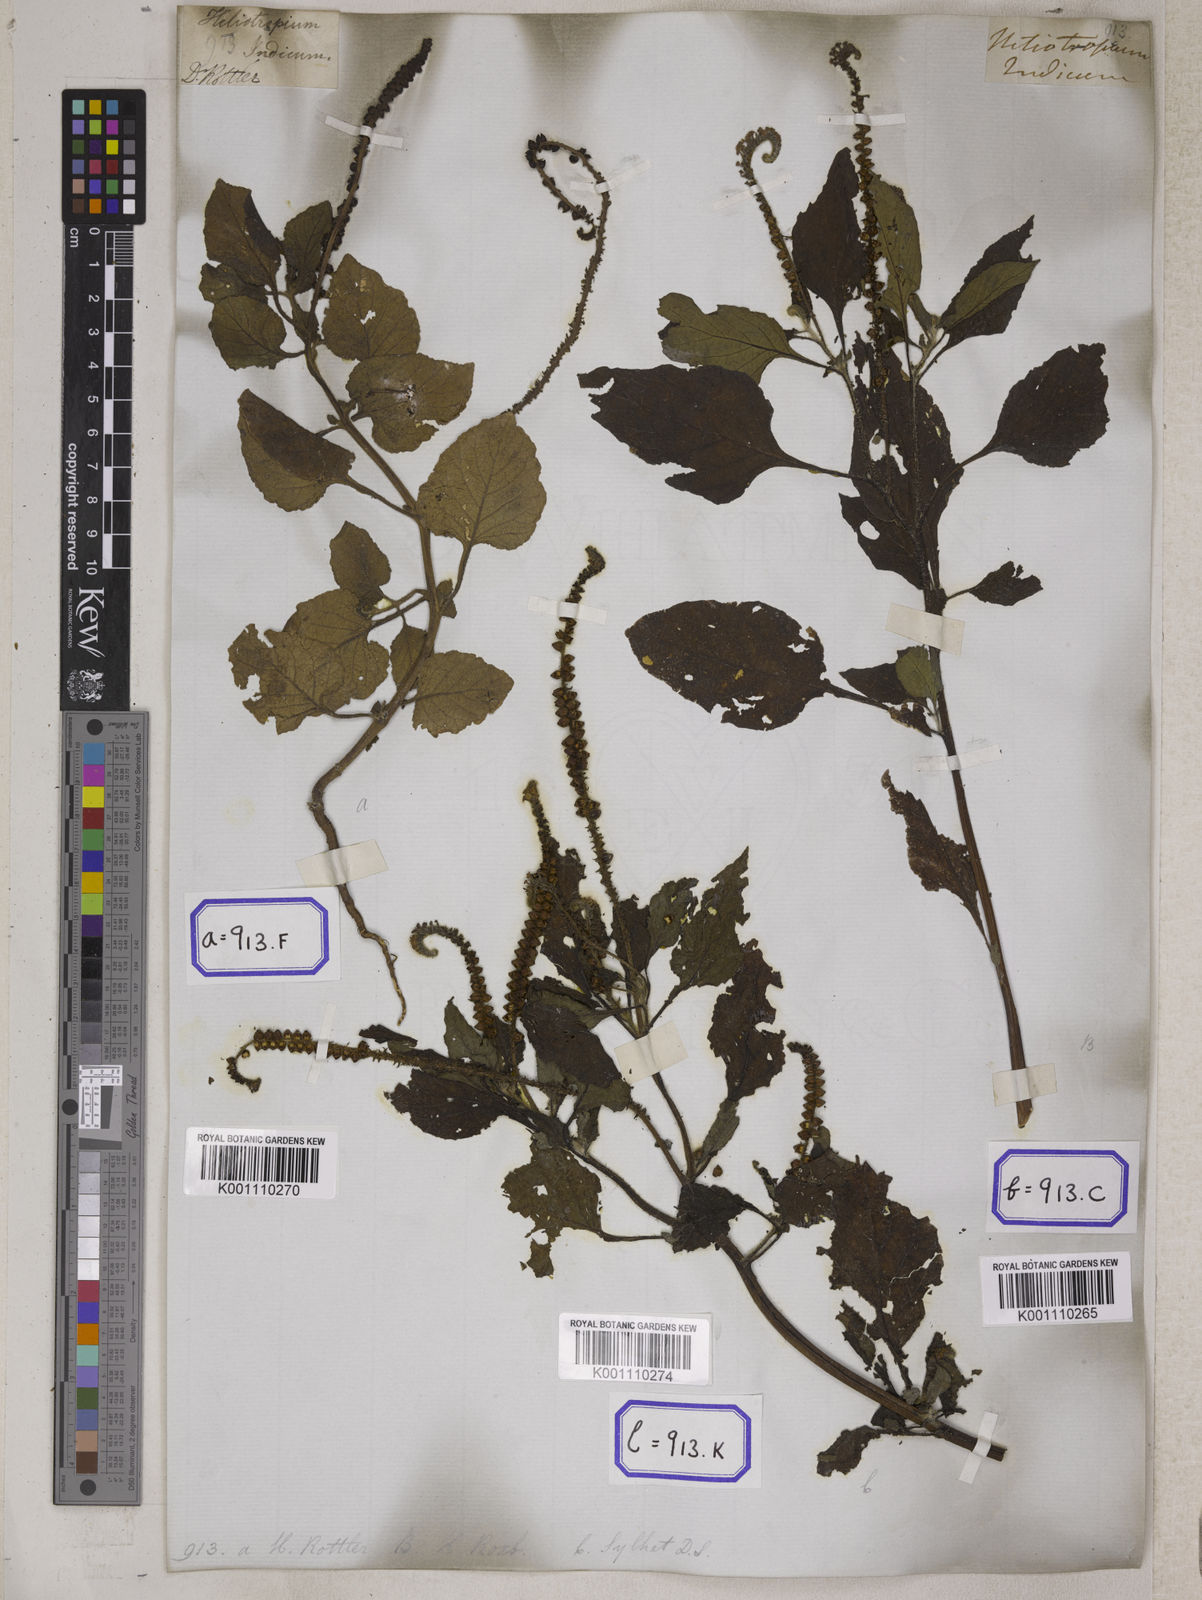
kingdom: Plantae
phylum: Tracheophyta
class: Magnoliopsida
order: Boraginales
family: Heliotropiaceae
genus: Heliotropium
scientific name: Heliotropium indicum
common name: Indian heliotrope
